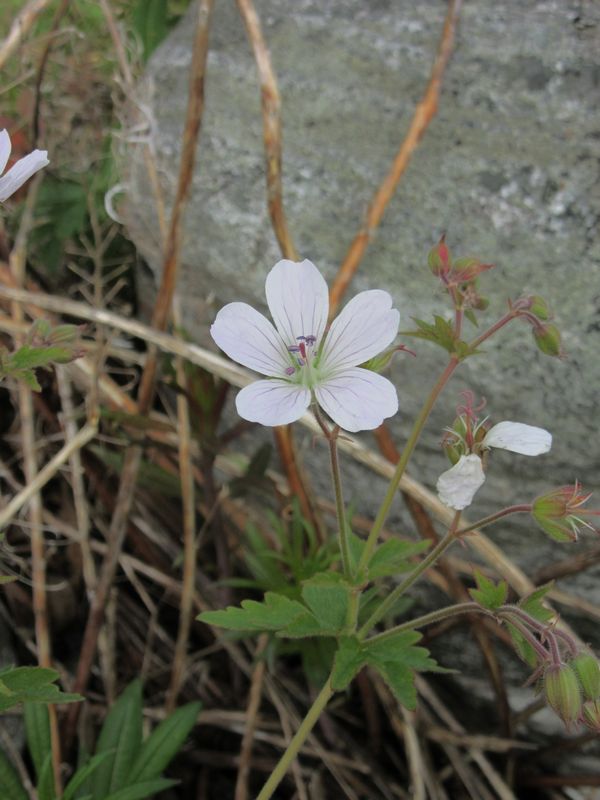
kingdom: Plantae
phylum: Tracheophyta
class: Magnoliopsida
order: Geraniales
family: Geraniaceae
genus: Geranium
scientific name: Geranium sylvaticum
